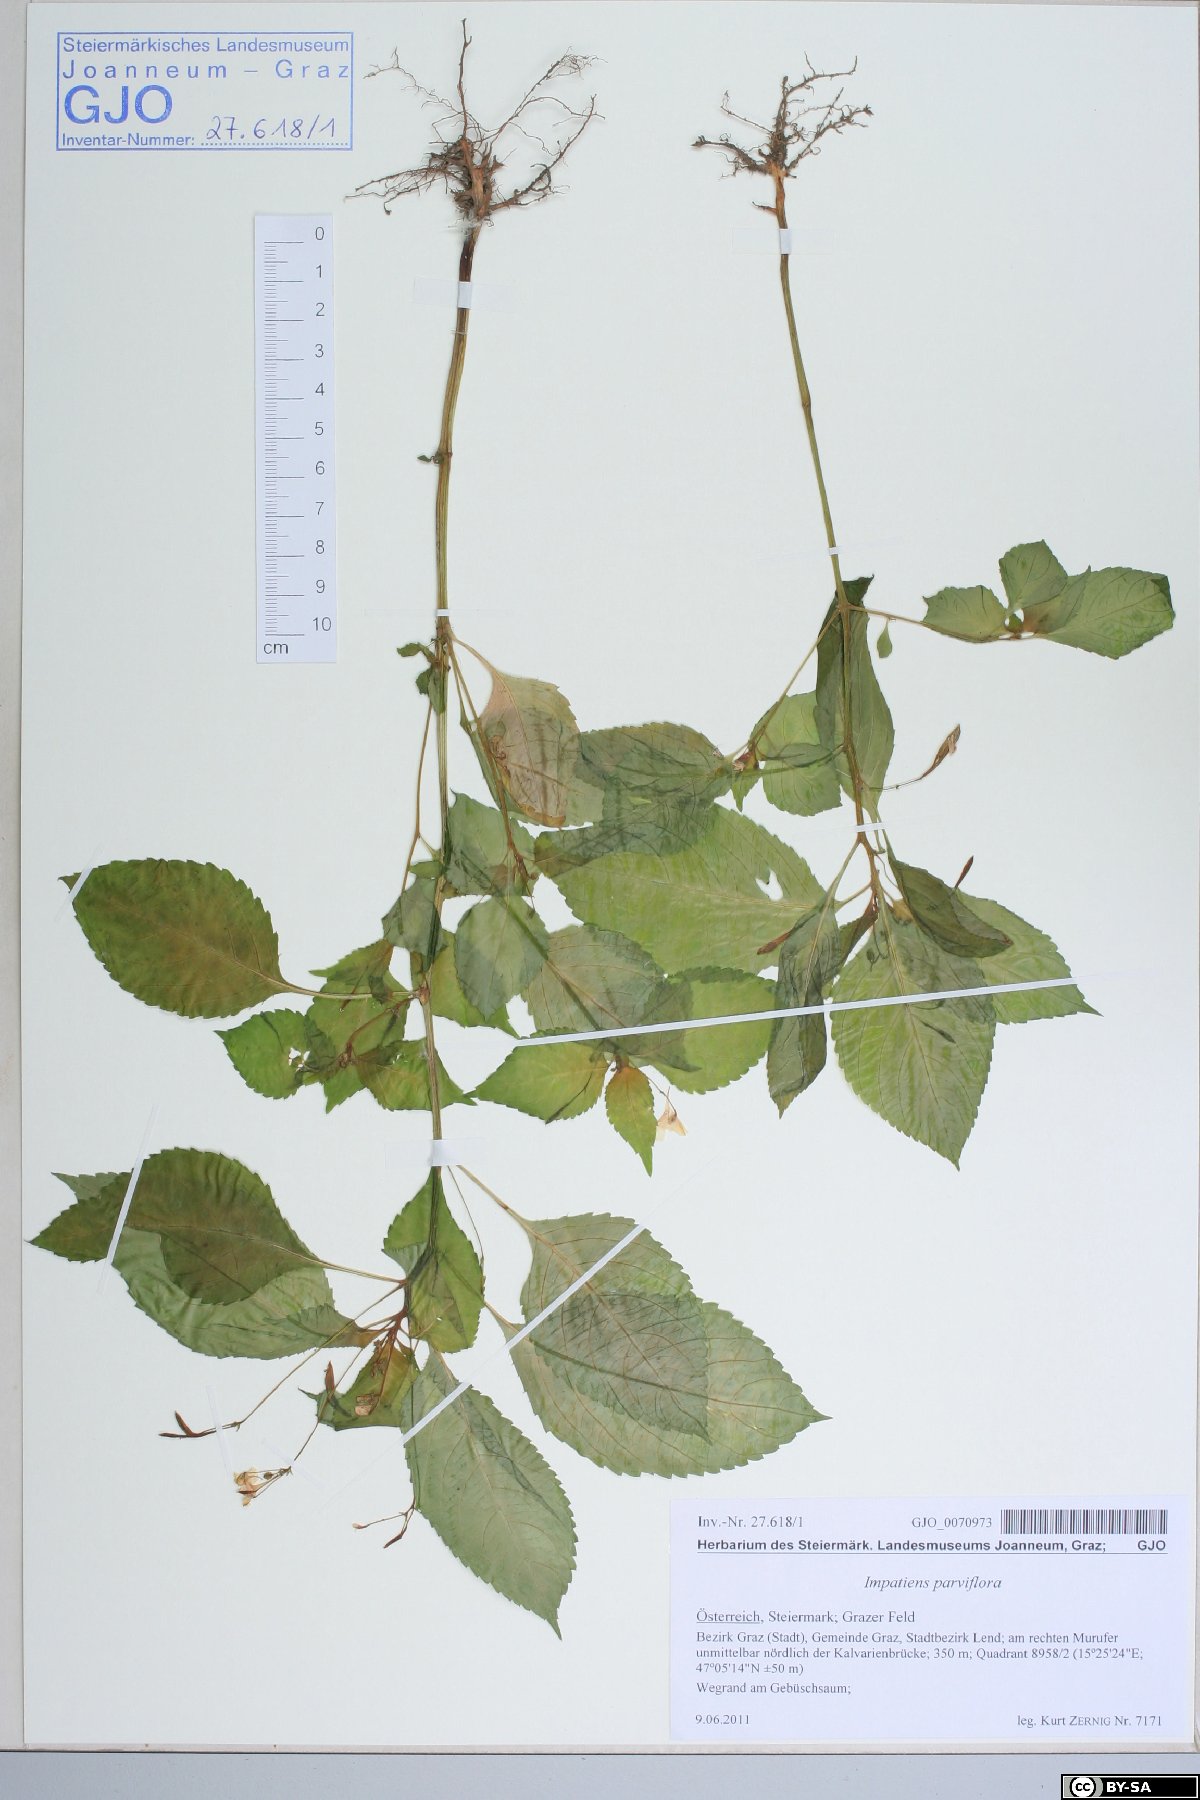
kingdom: Plantae
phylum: Tracheophyta
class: Magnoliopsida
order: Ericales
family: Balsaminaceae
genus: Impatiens
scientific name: Impatiens parviflora
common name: Small balsam
